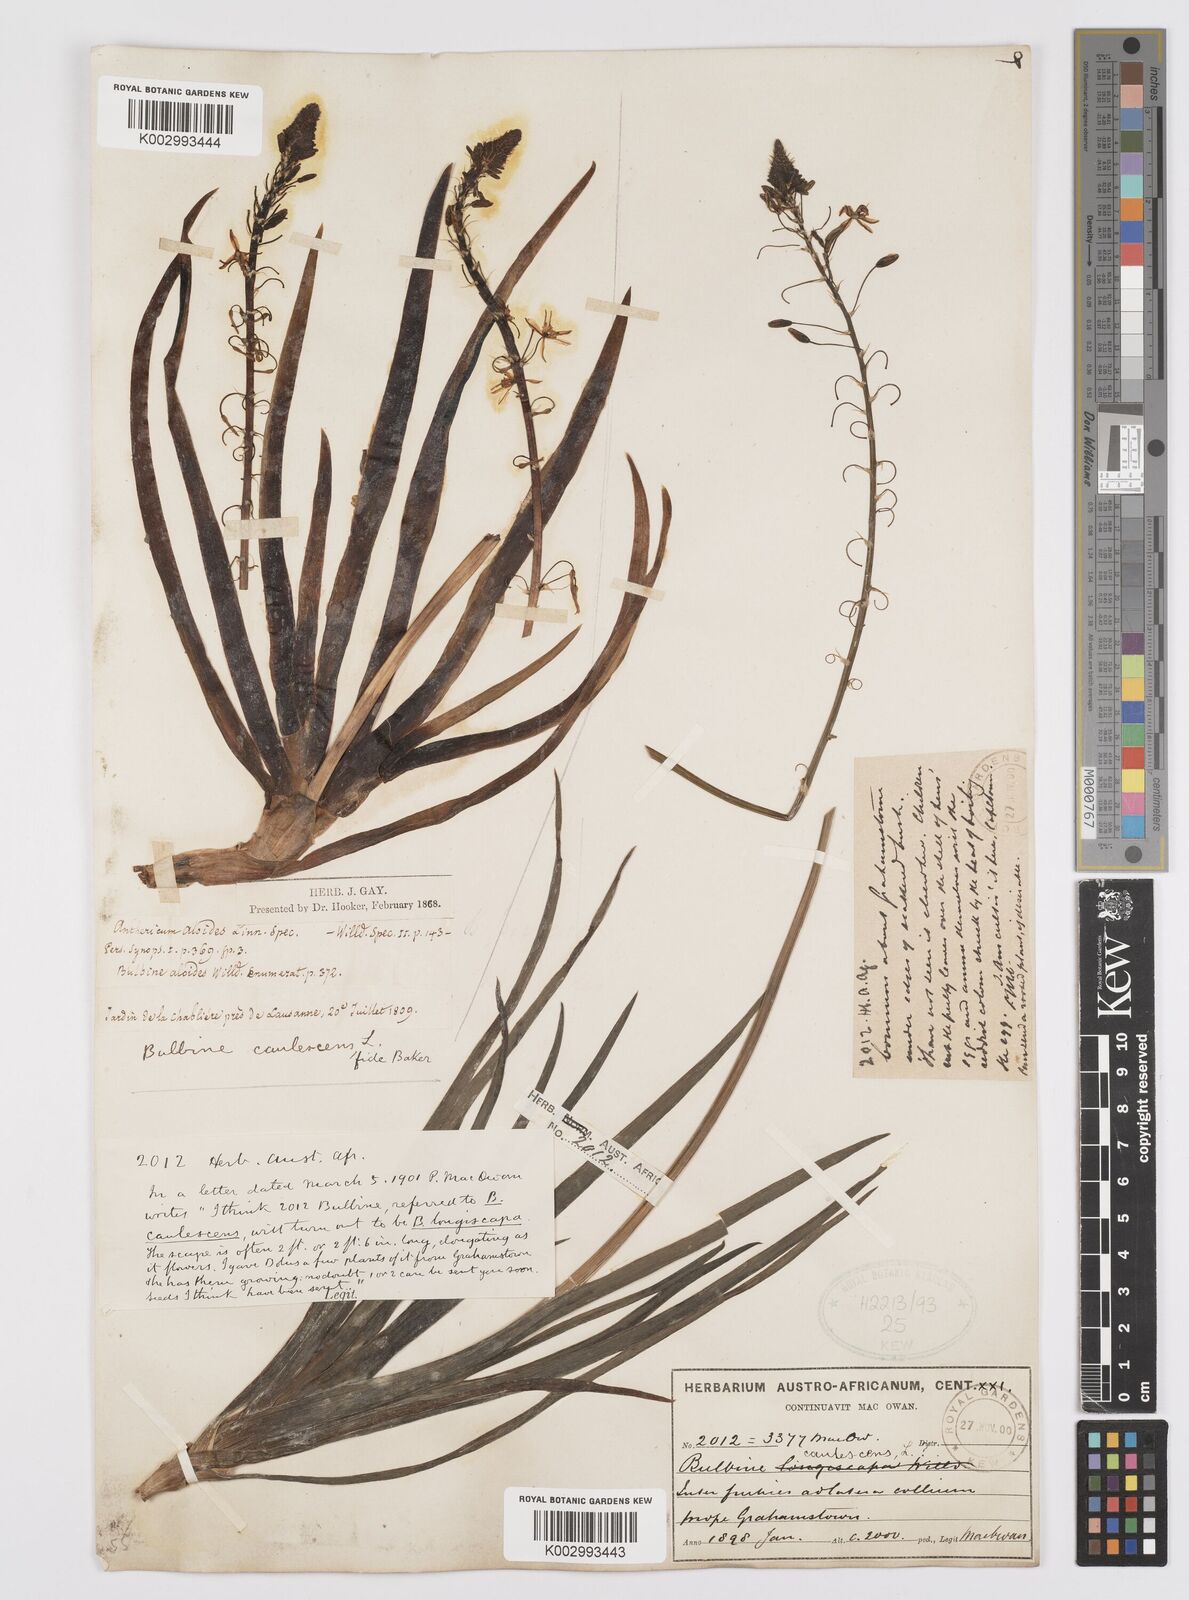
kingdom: Plantae
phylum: Tracheophyta
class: Liliopsida
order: Asparagales
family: Asphodelaceae
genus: Bulbine
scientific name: Bulbine frutescens
